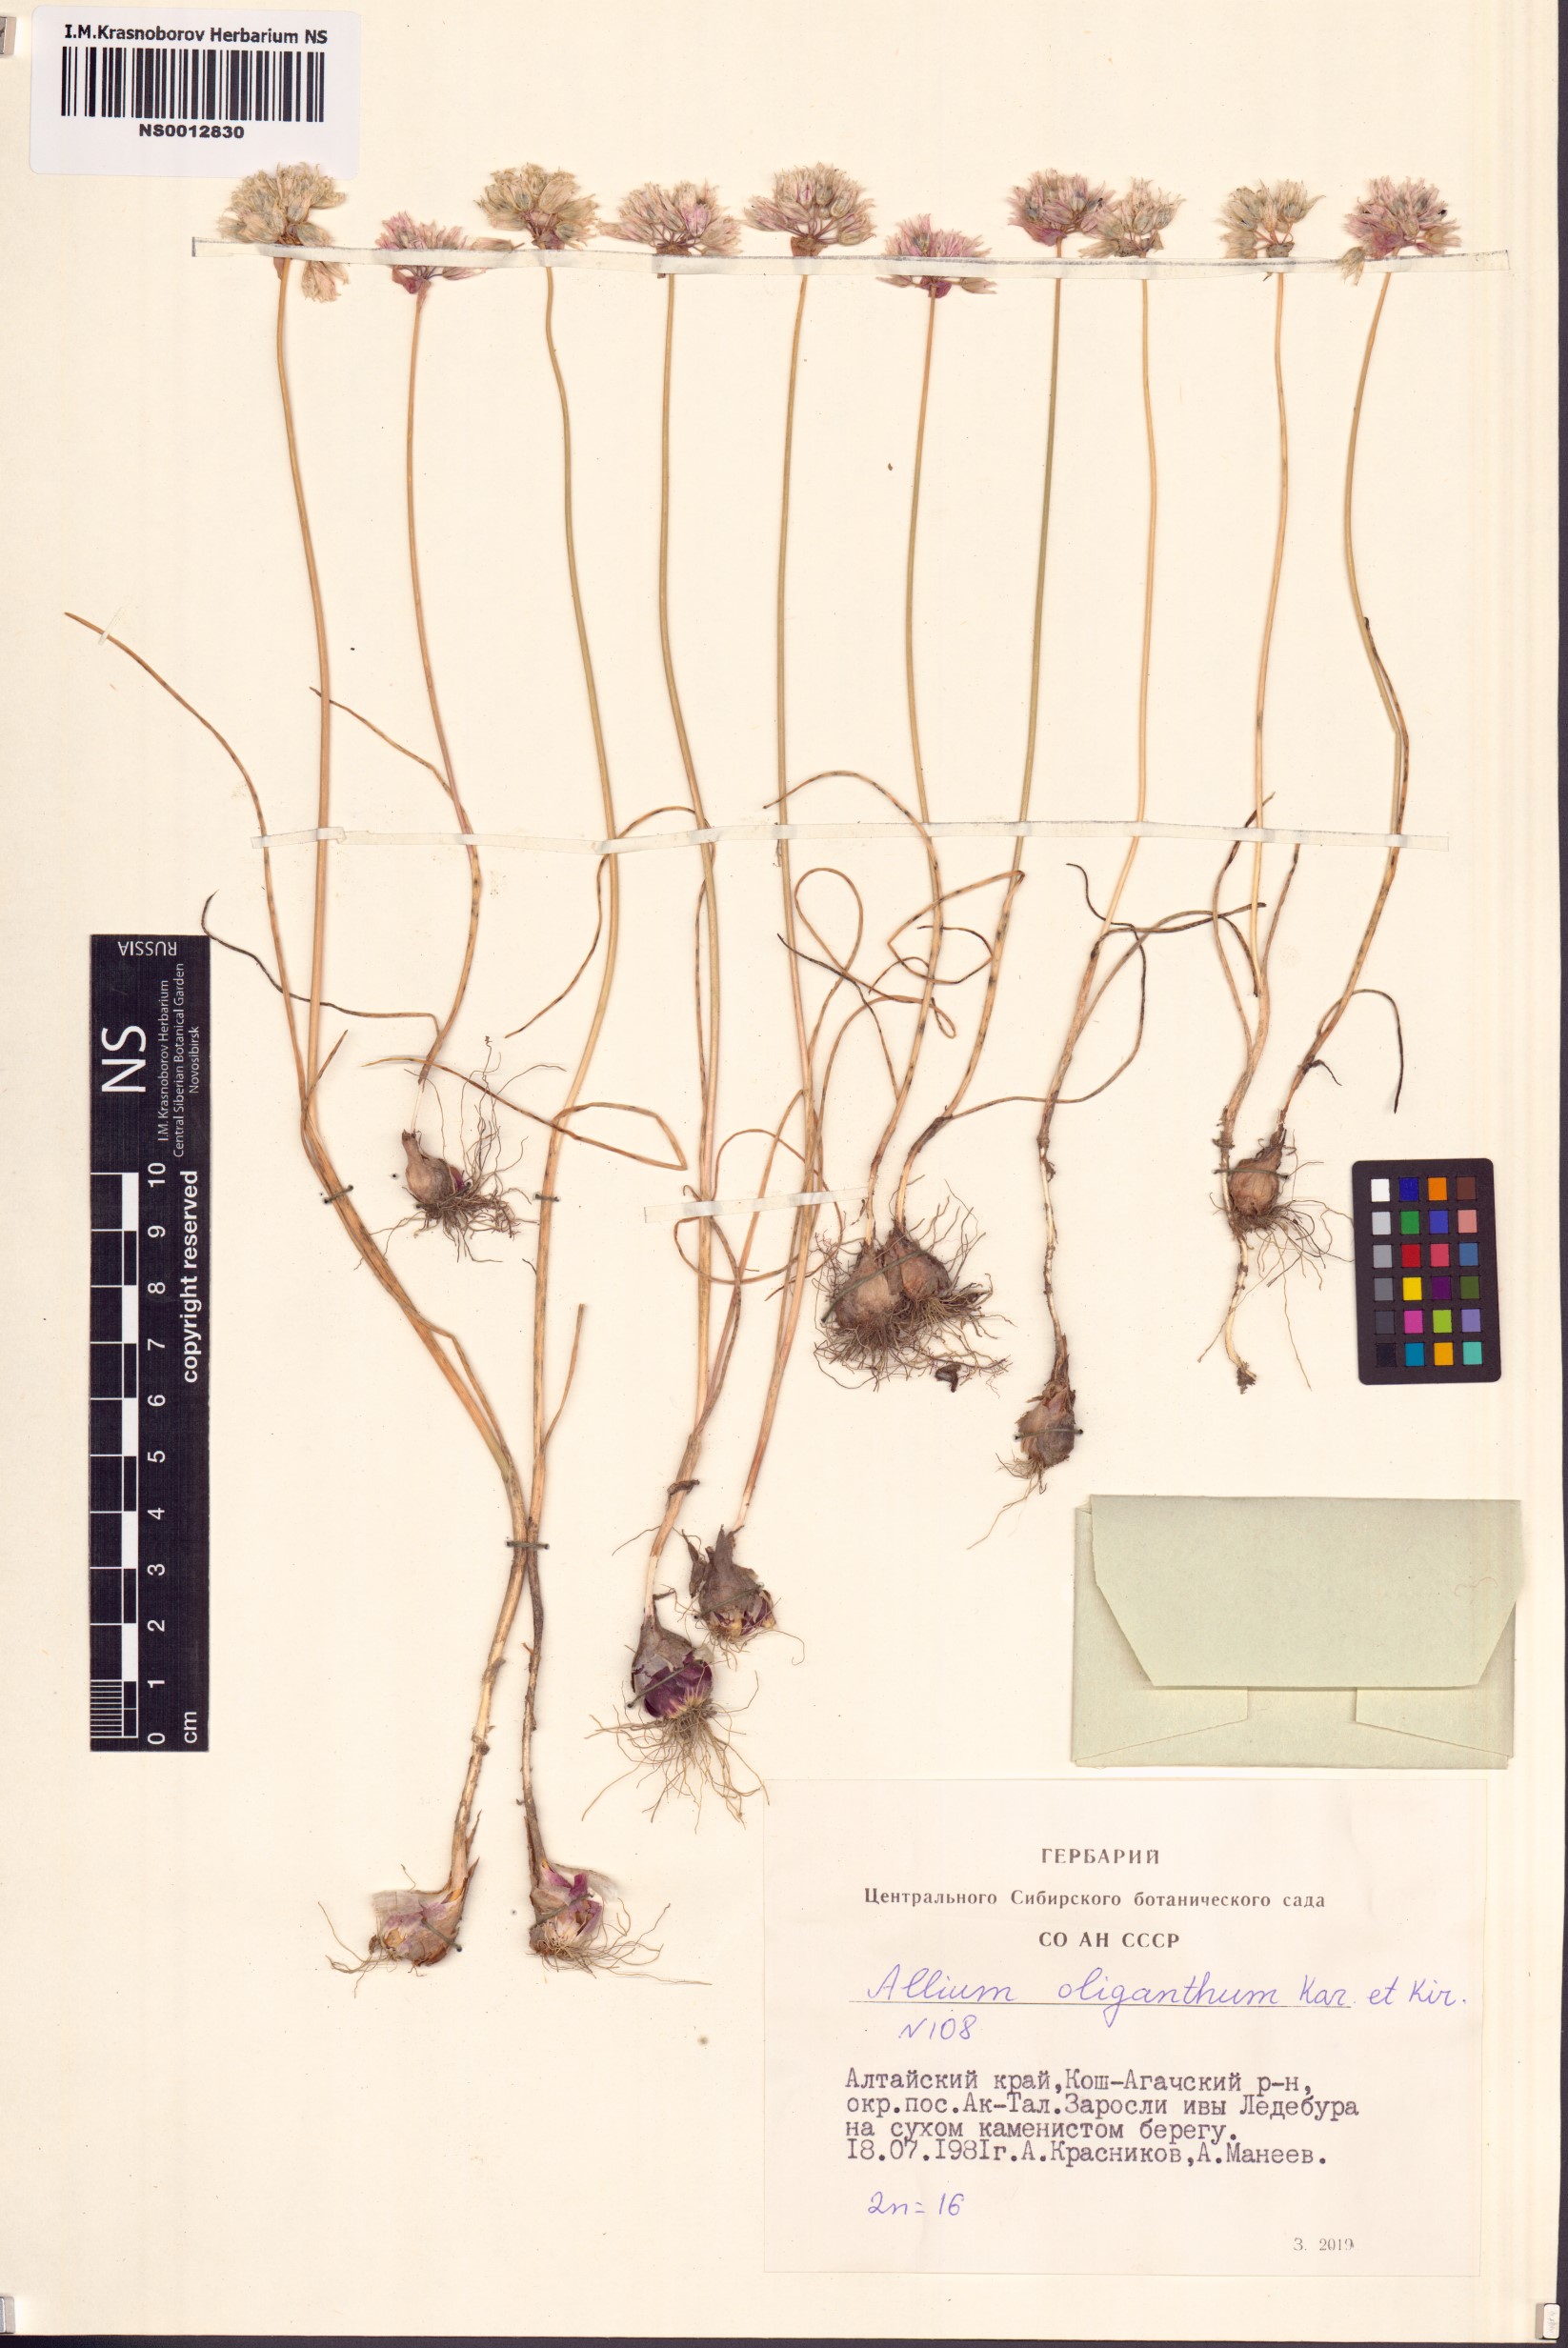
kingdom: Plantae
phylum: Tracheophyta
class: Liliopsida
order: Asparagales
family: Amaryllidaceae
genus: Allium
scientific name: Allium oliganthum
